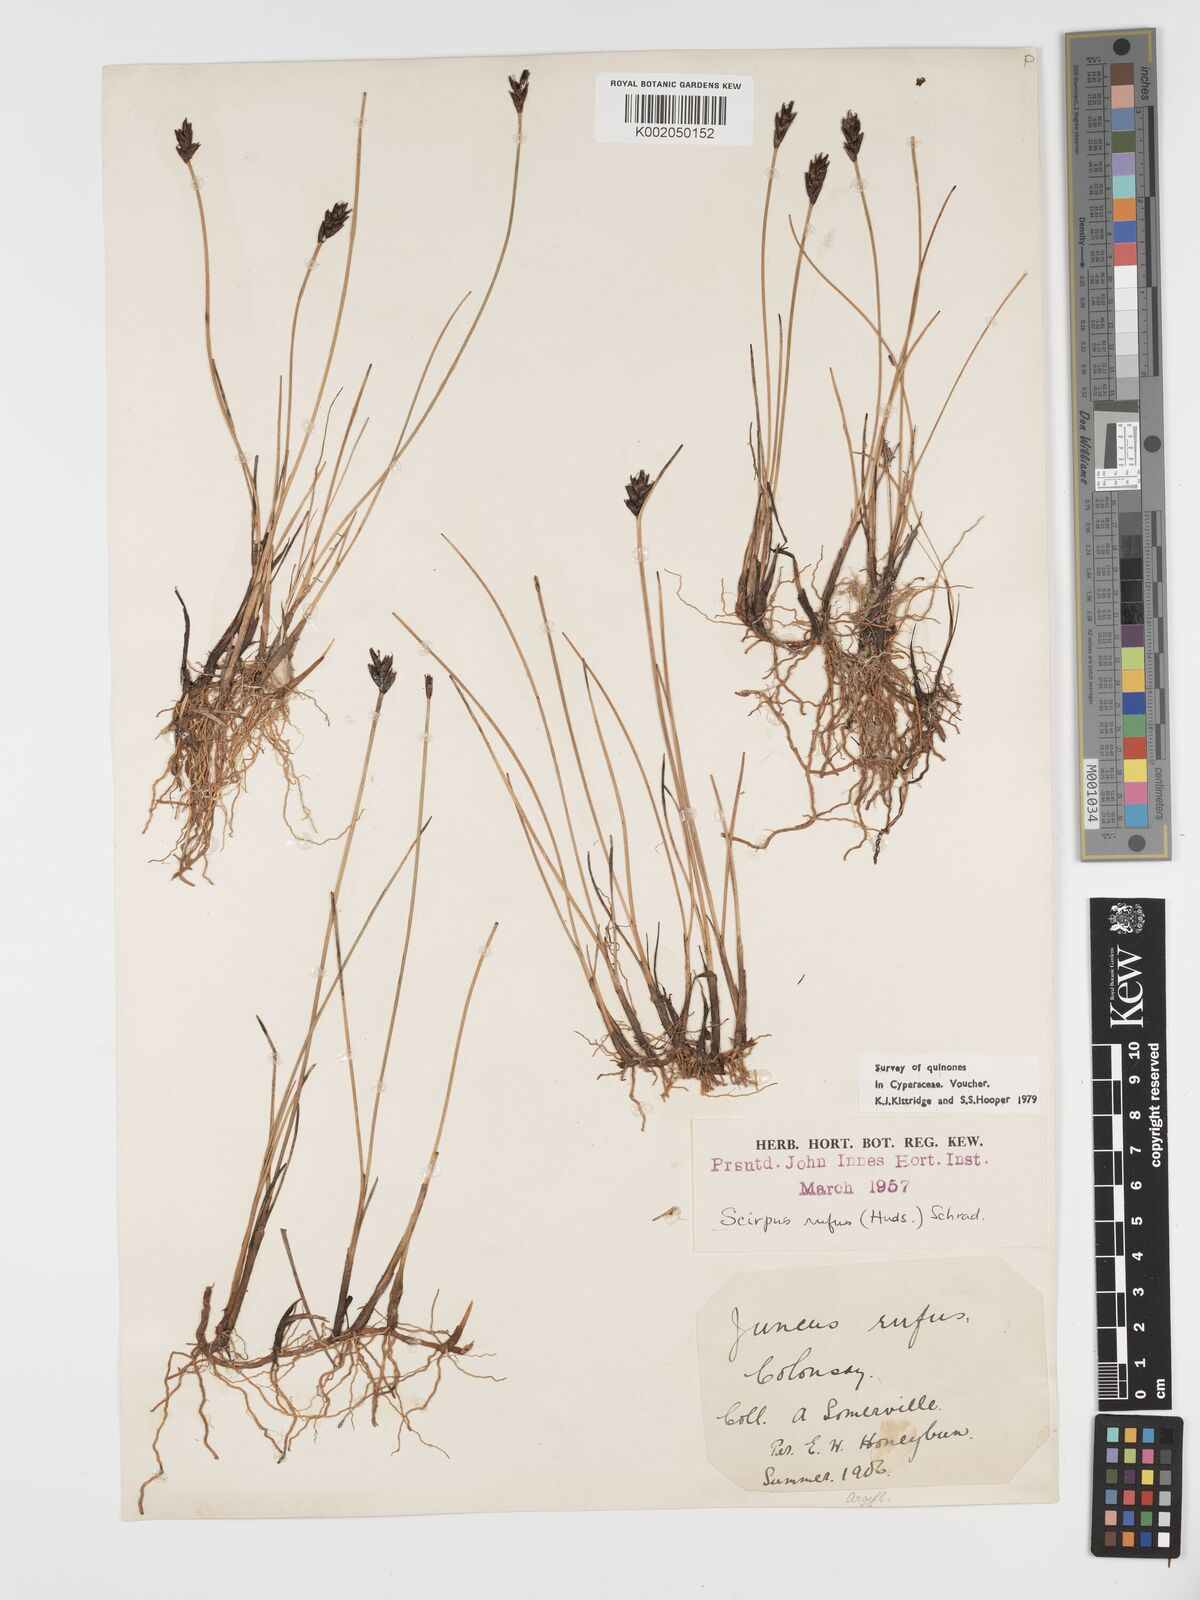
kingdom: Plantae
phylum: Tracheophyta
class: Liliopsida
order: Poales
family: Cyperaceae
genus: Blysmus
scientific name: Blysmus rufus
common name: Saltmarsh flat-sedge
